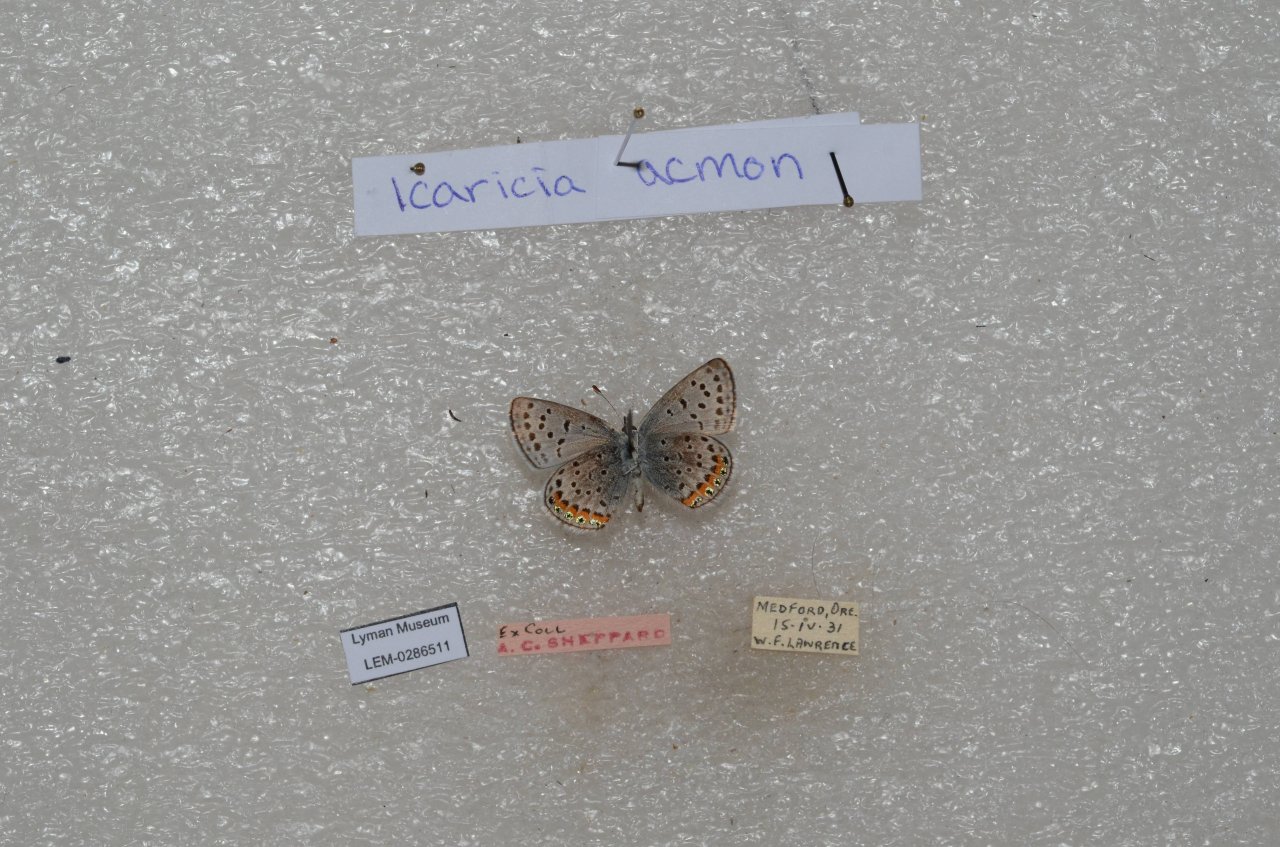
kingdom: Animalia
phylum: Arthropoda
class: Insecta
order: Lepidoptera
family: Lycaenidae
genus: Plebejus
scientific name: Plebejus acmon
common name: Acmon Blue
